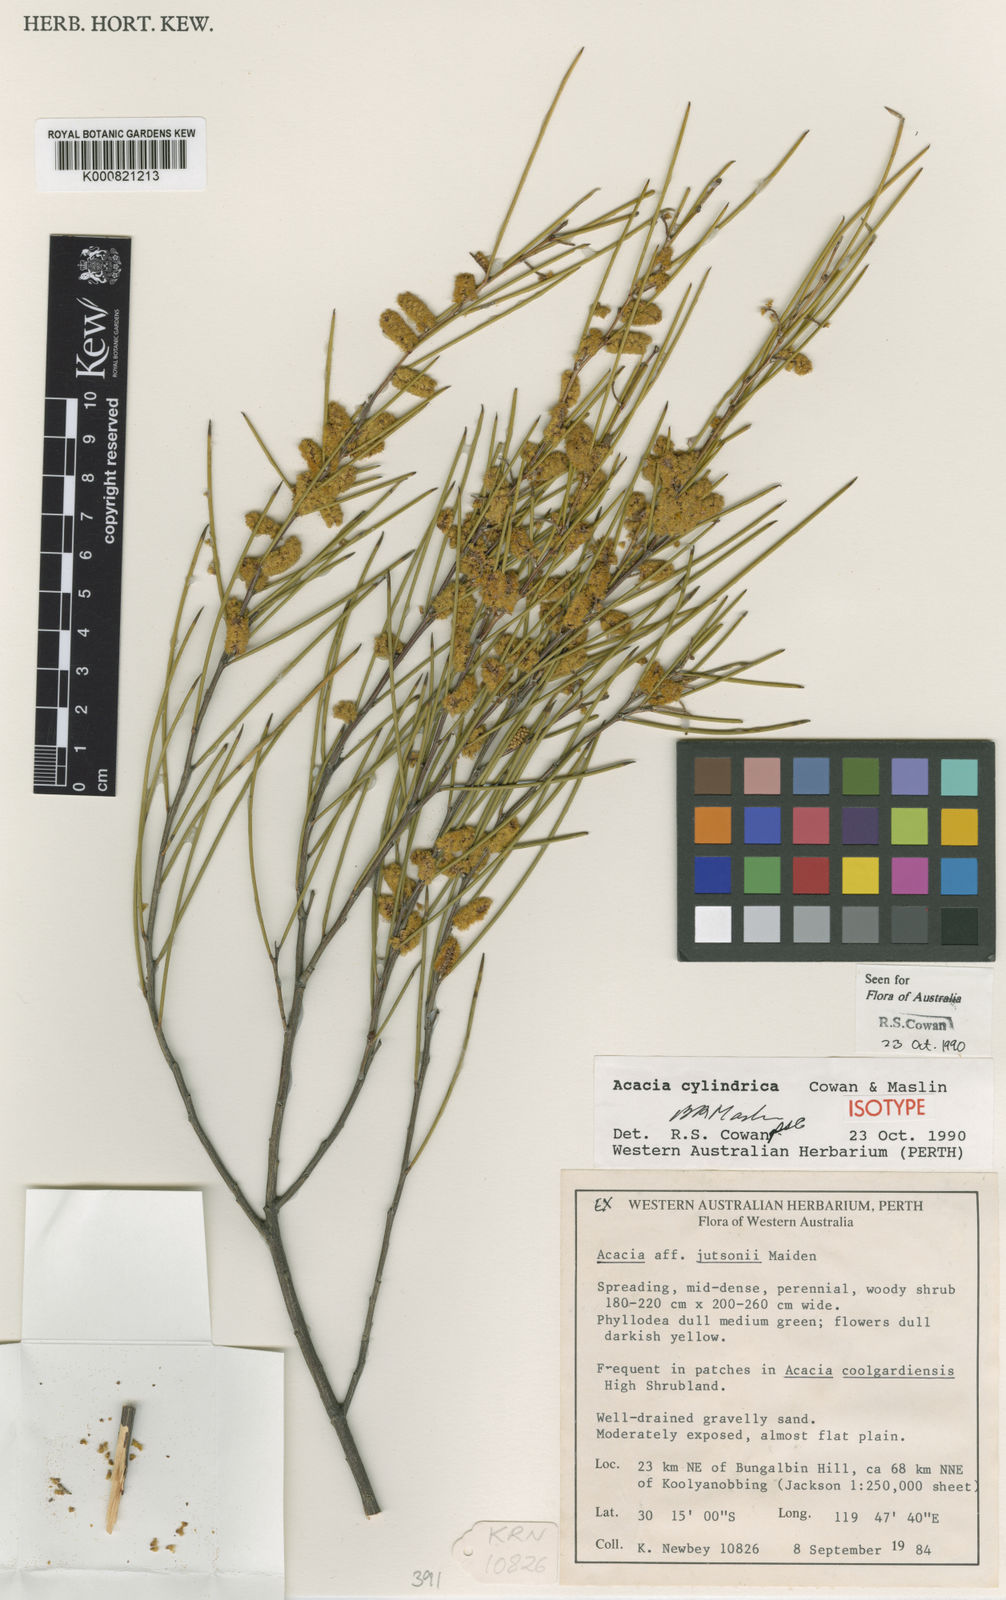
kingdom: Plantae
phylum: Tracheophyta
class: Magnoliopsida
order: Fabales
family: Fabaceae
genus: Acacia
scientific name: Acacia cylindrica
